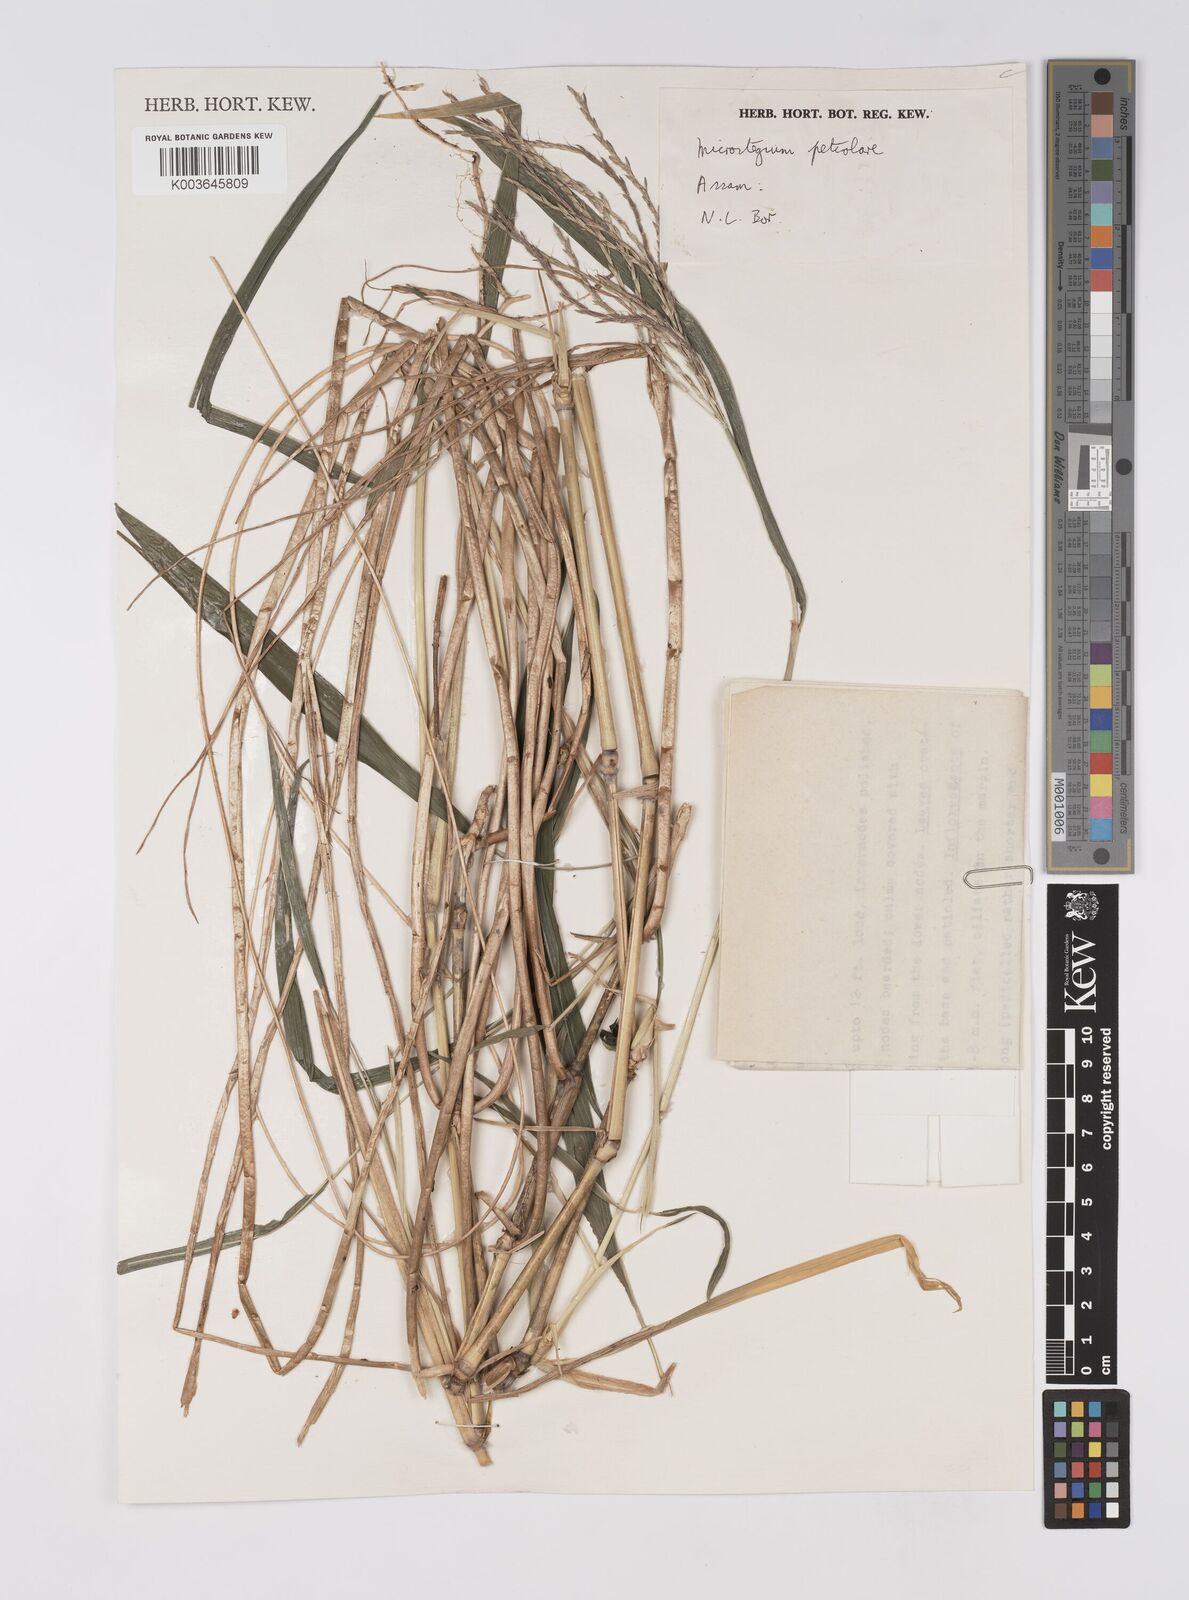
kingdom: Plantae
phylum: Tracheophyta
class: Liliopsida
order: Poales
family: Poaceae
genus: Microstegium
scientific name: Microstegium petiolare
